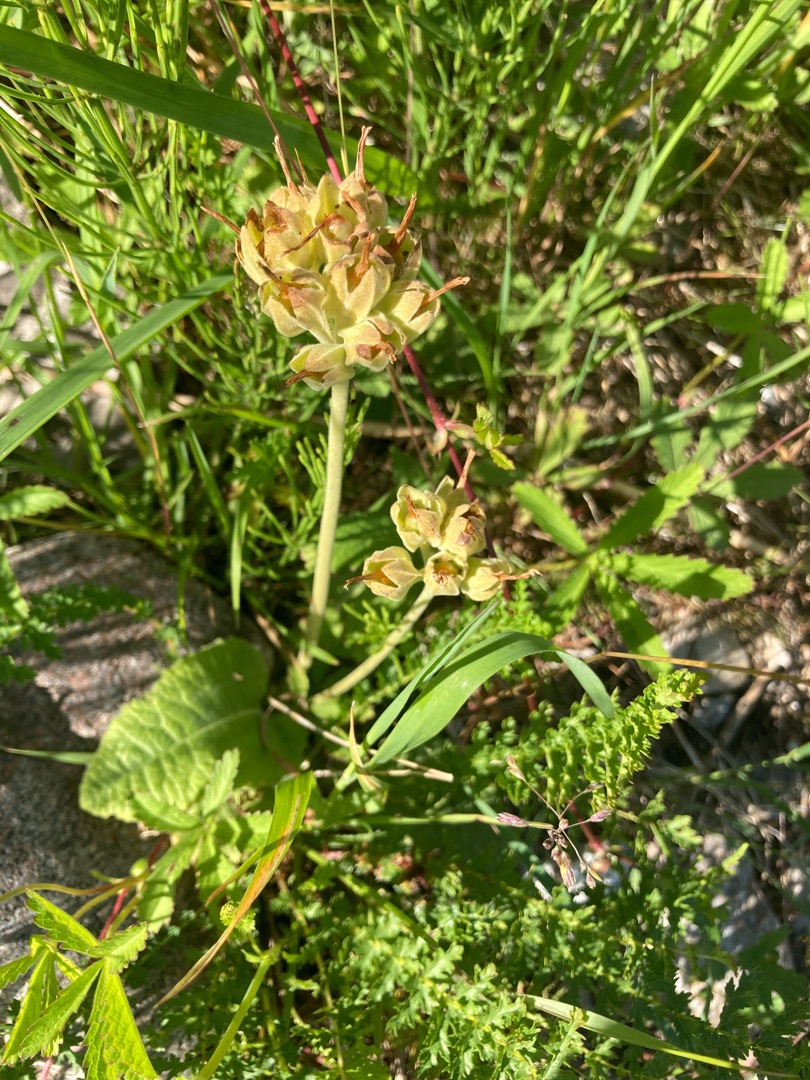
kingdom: Plantae
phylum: Tracheophyta
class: Magnoliopsida
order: Ericales
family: Primulaceae
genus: Primula
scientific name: Primula veris
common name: Hulkravet kodriver
